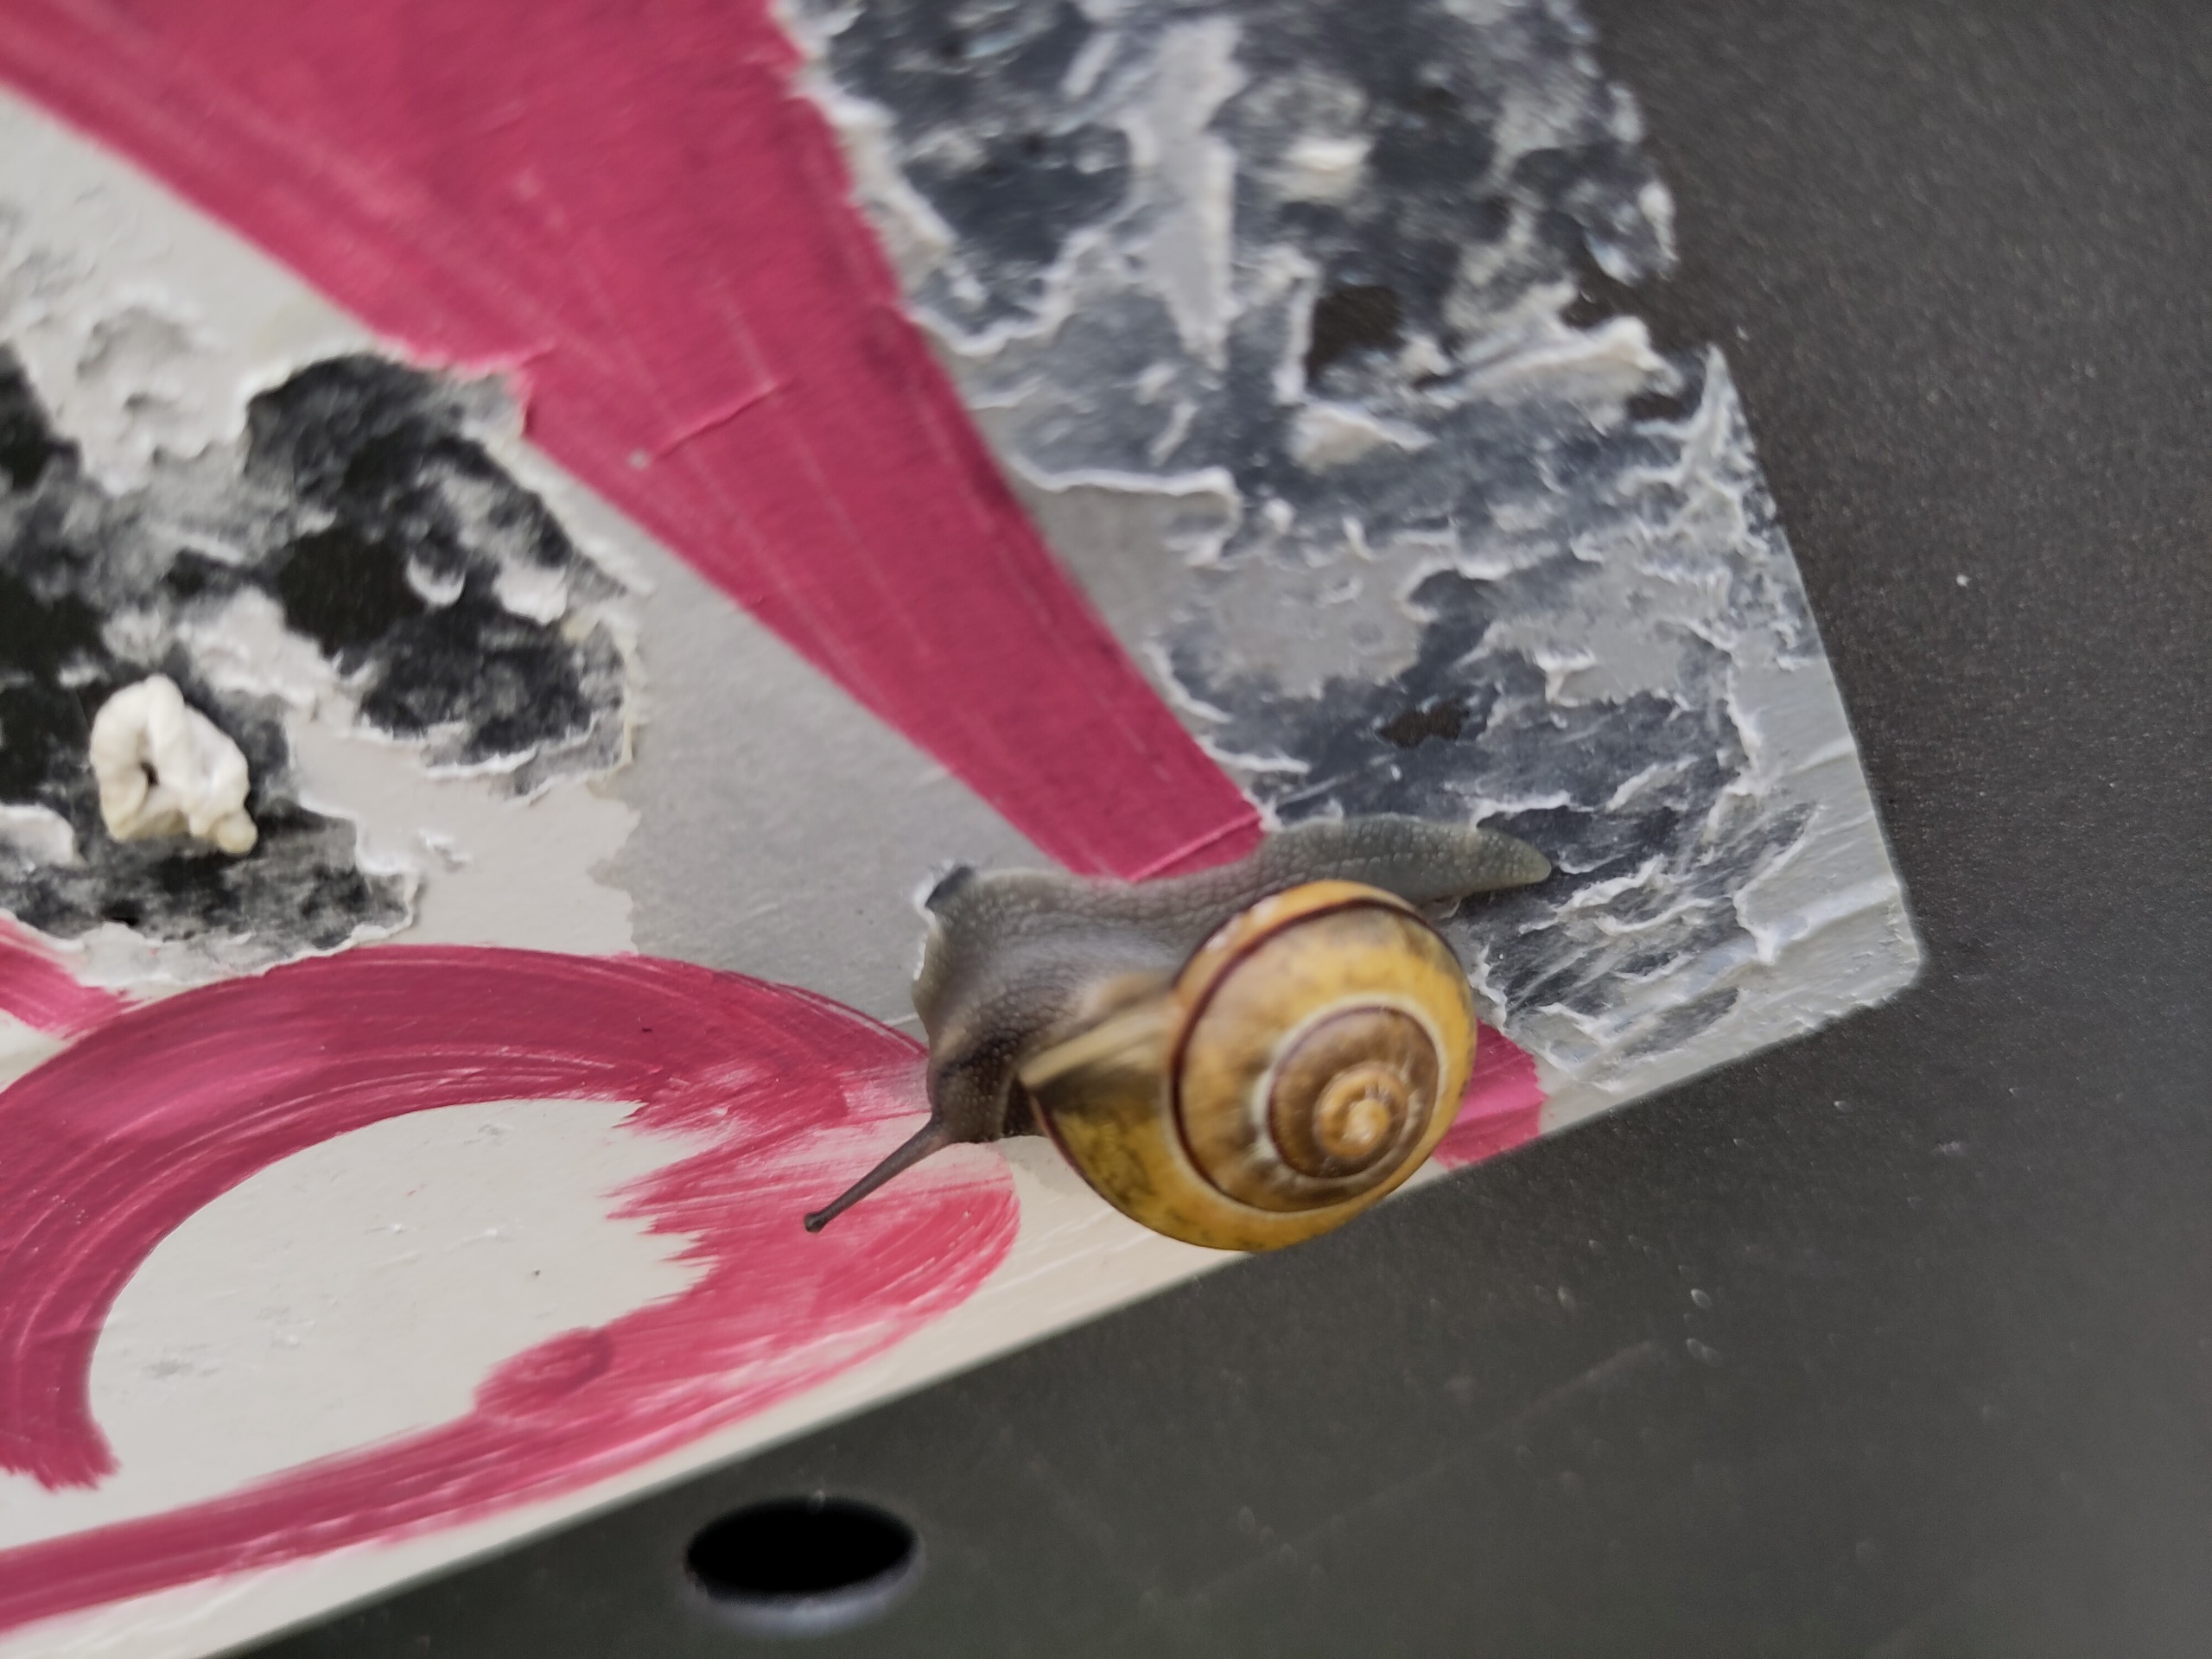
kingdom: Animalia
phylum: Mollusca
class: Gastropoda
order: Stylommatophora
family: Helicidae
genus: Cepaea
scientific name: Cepaea hortensis
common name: Havesnegl
